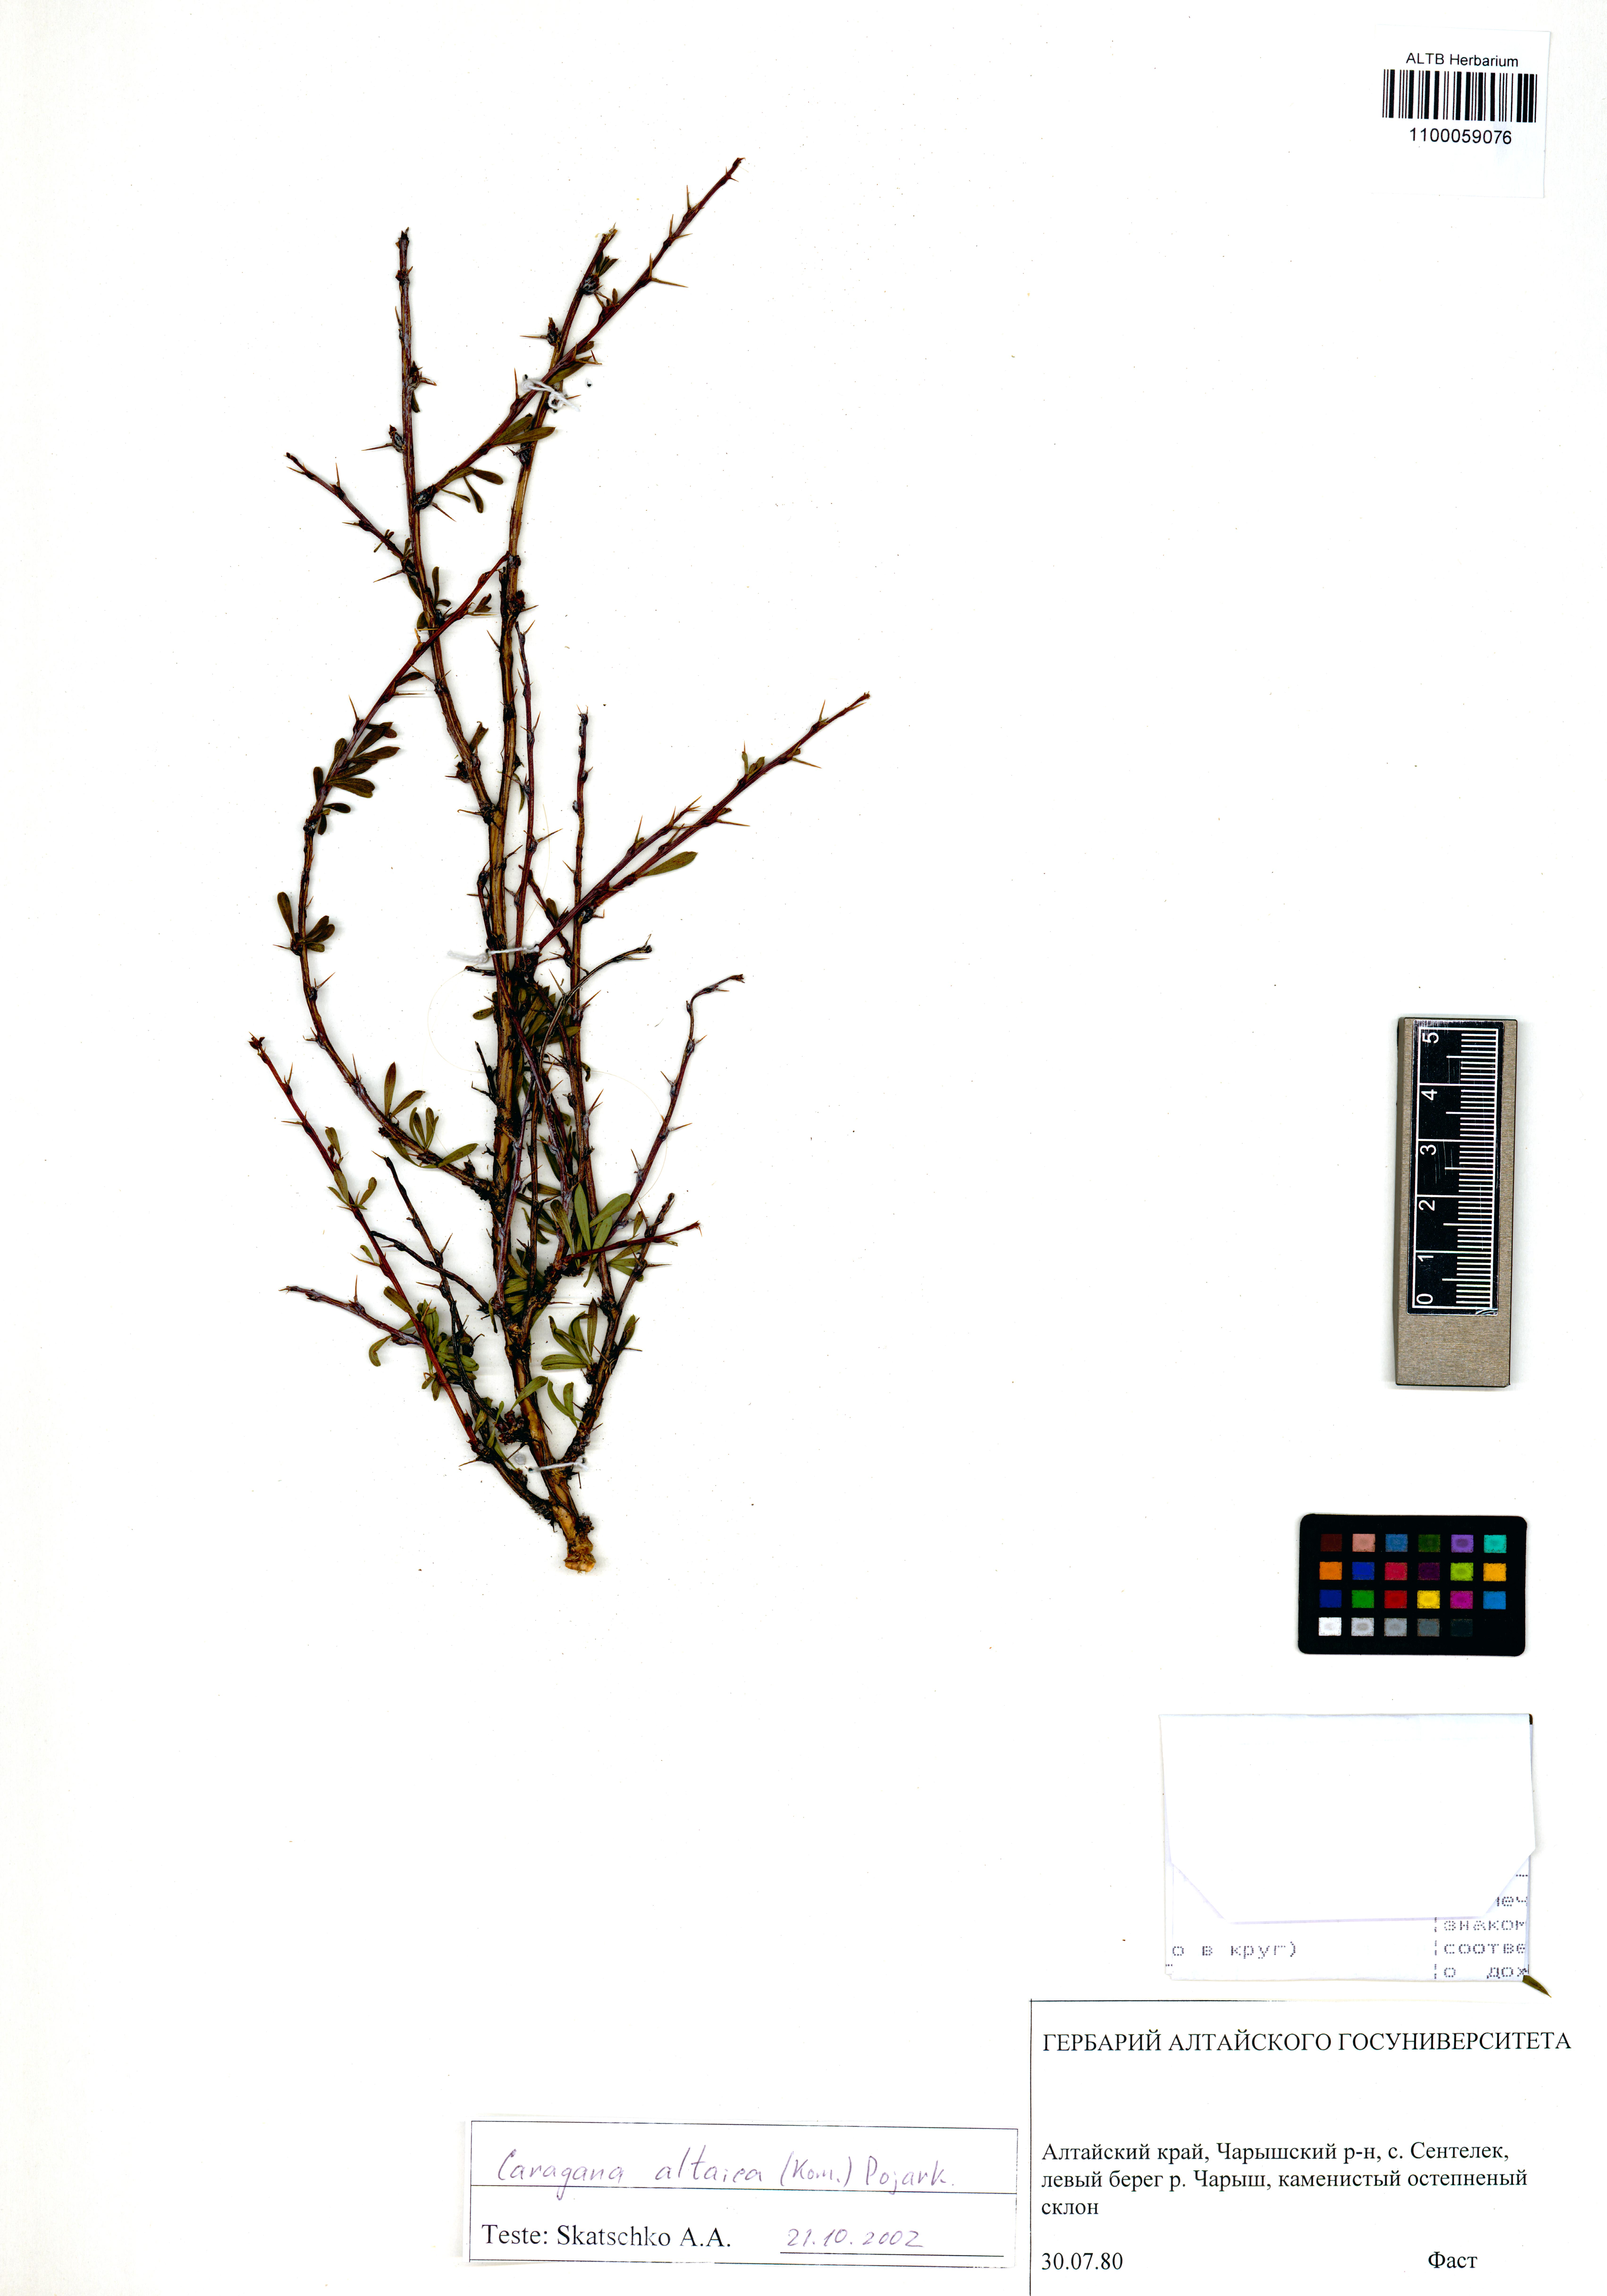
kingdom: Plantae
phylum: Tracheophyta
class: Magnoliopsida
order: Fabales
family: Fabaceae
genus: Caragana
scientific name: Caragana pygmaea
